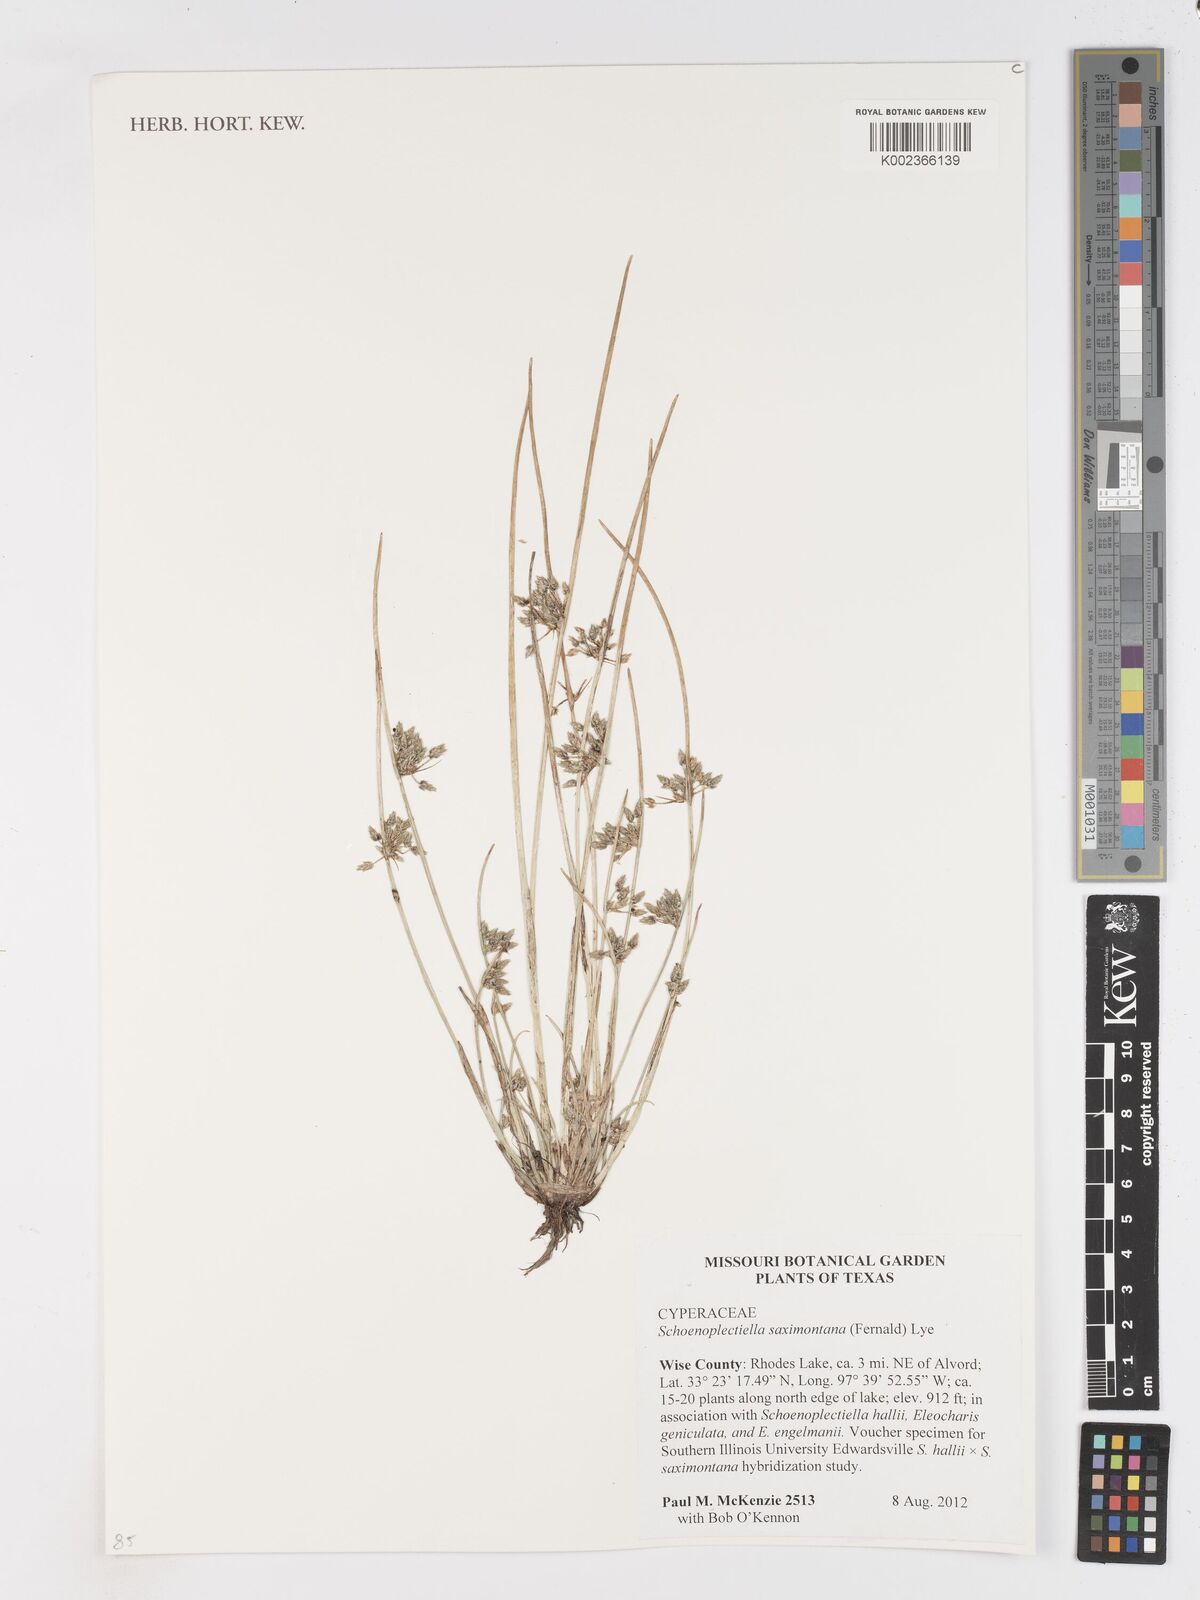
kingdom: Plantae
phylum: Tracheophyta
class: Liliopsida
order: Poales
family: Cyperaceae
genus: Schoenoplectiella
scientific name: Schoenoplectiella saximontana
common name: Rocky mountain clubrush
